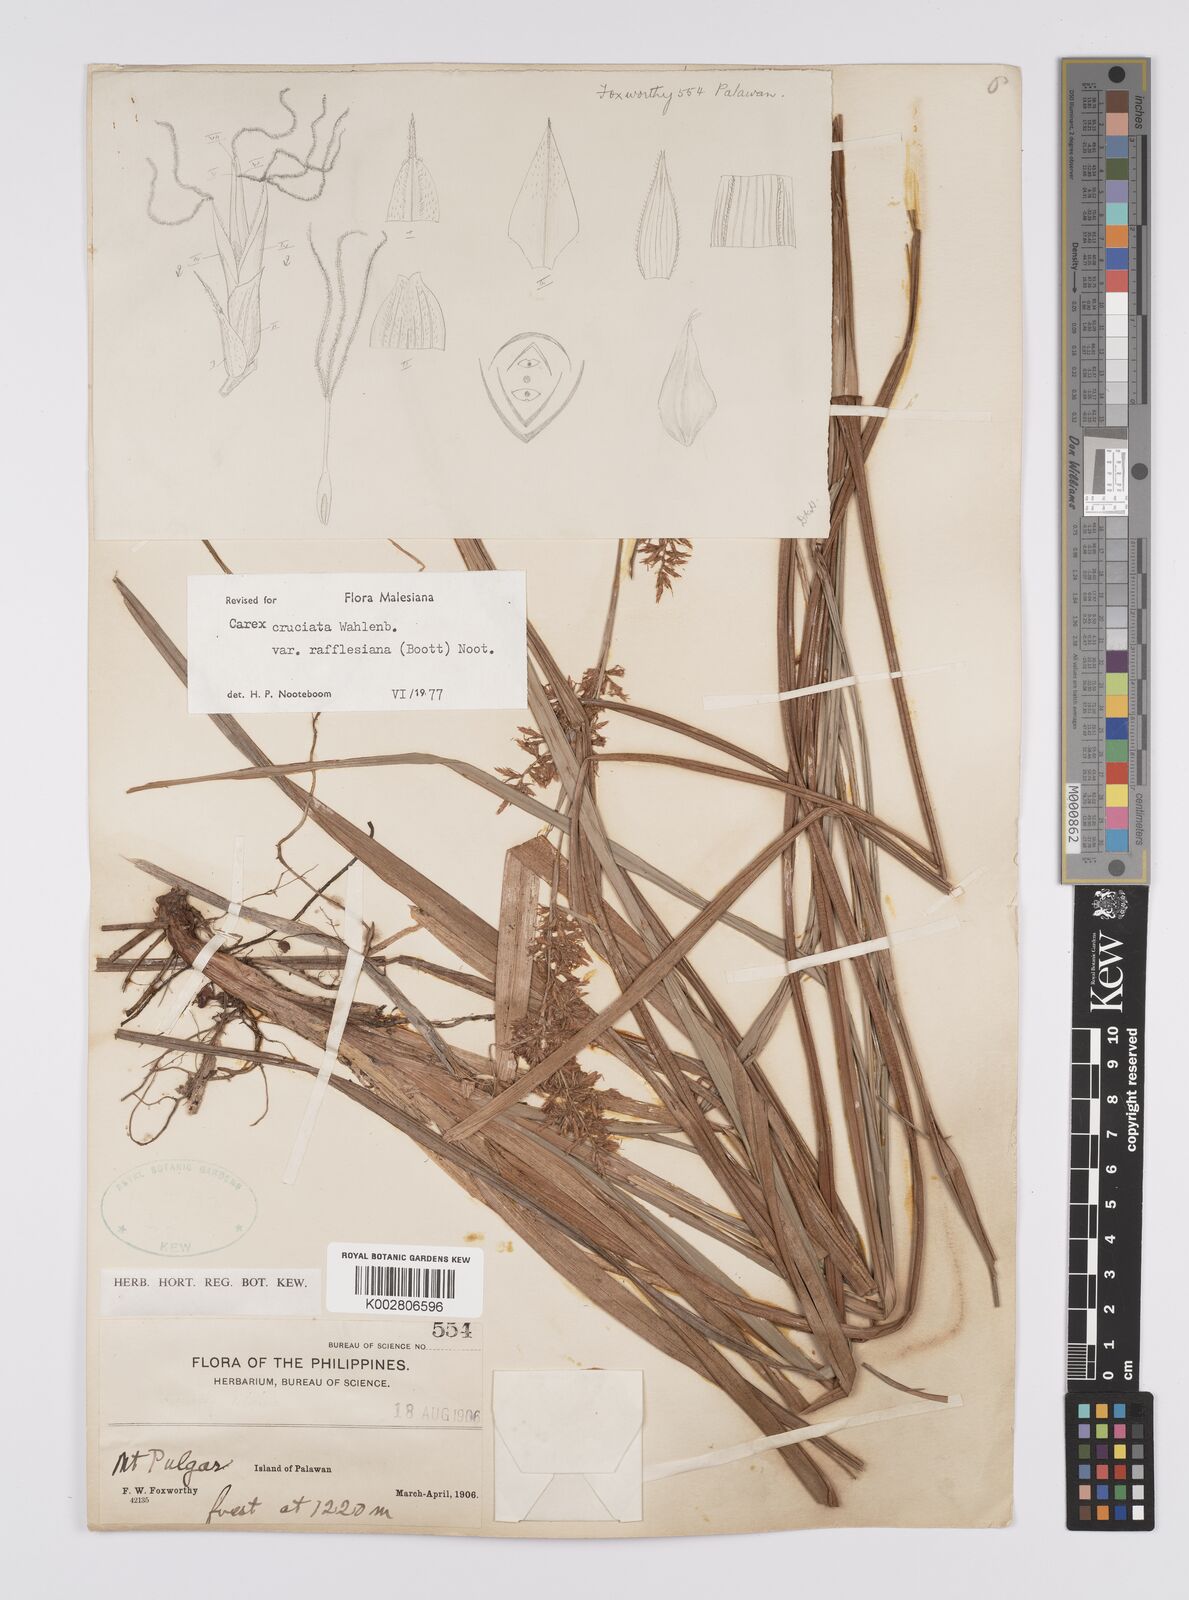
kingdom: Plantae
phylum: Tracheophyta
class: Liliopsida
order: Poales
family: Cyperaceae
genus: Carex
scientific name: Carex rafflesiana
